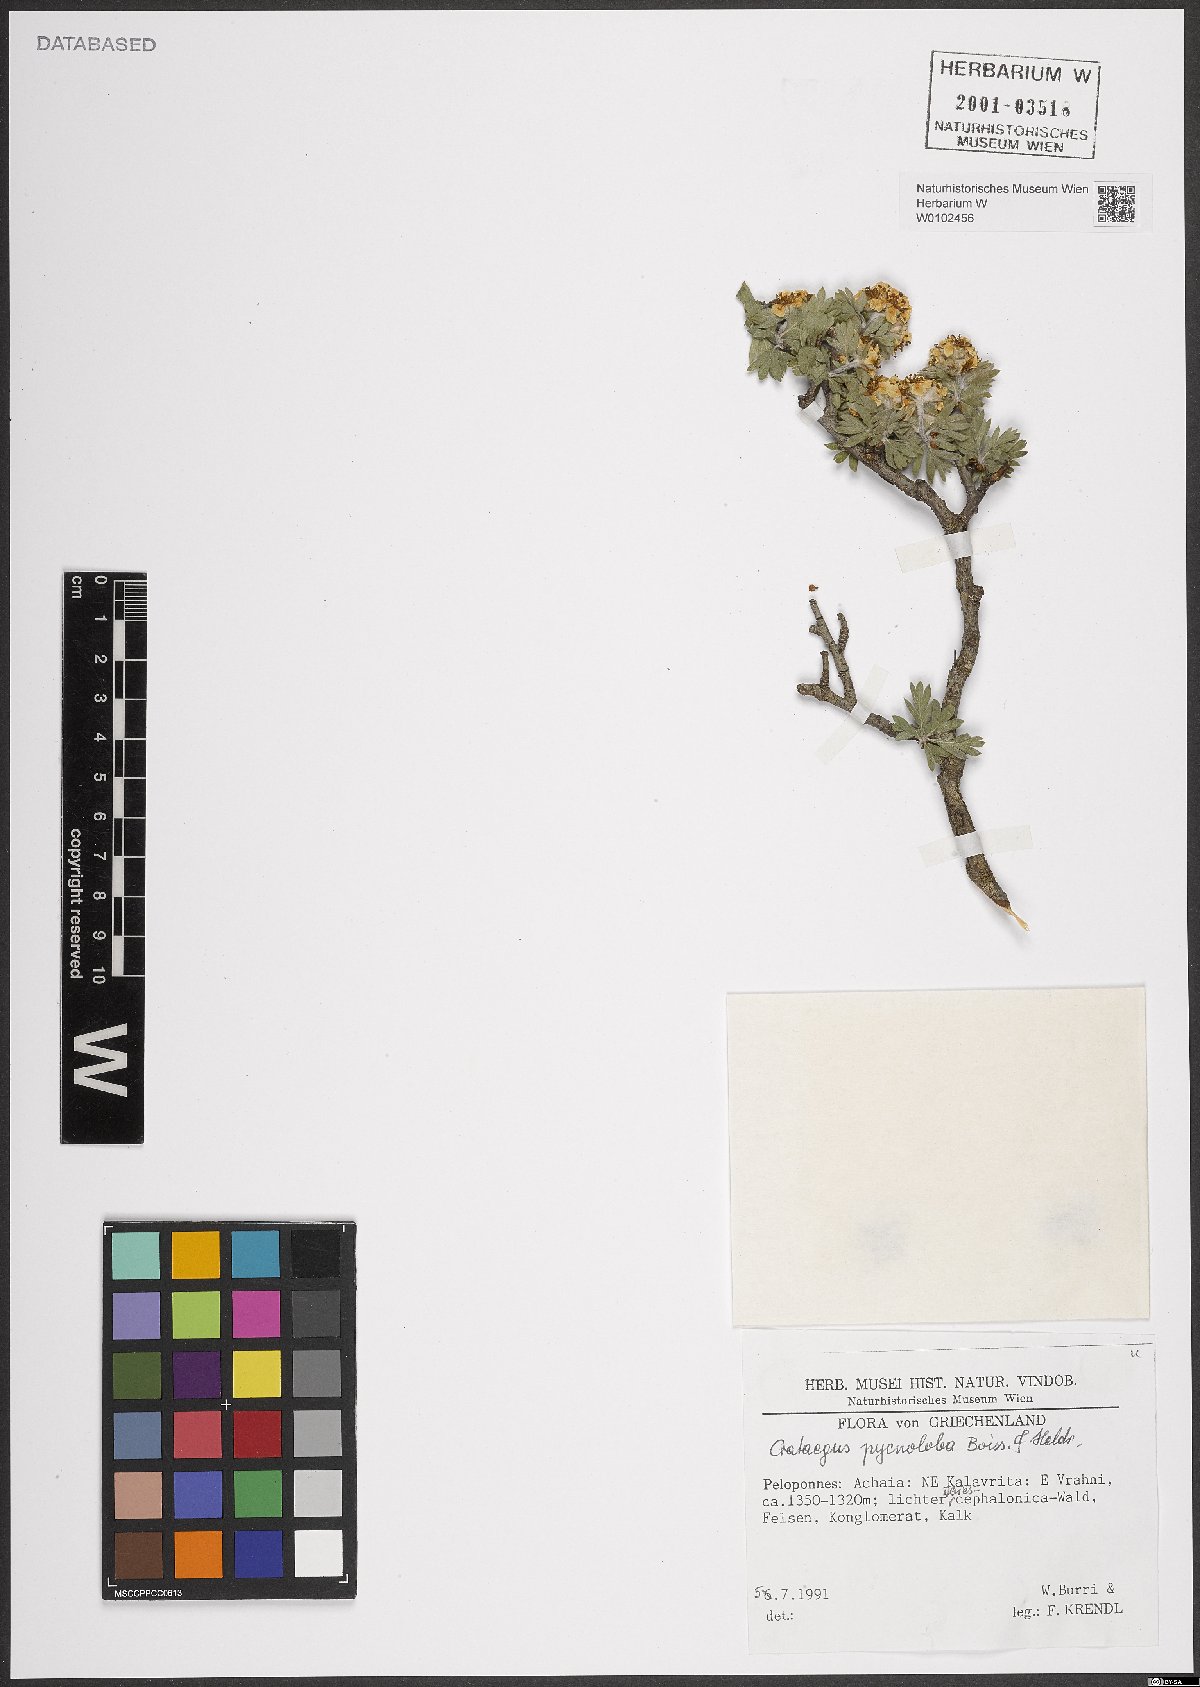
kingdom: Plantae
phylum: Tracheophyta
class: Magnoliopsida
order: Rosales
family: Rosaceae
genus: Crataegus
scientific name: Crataegus pycnoloba
